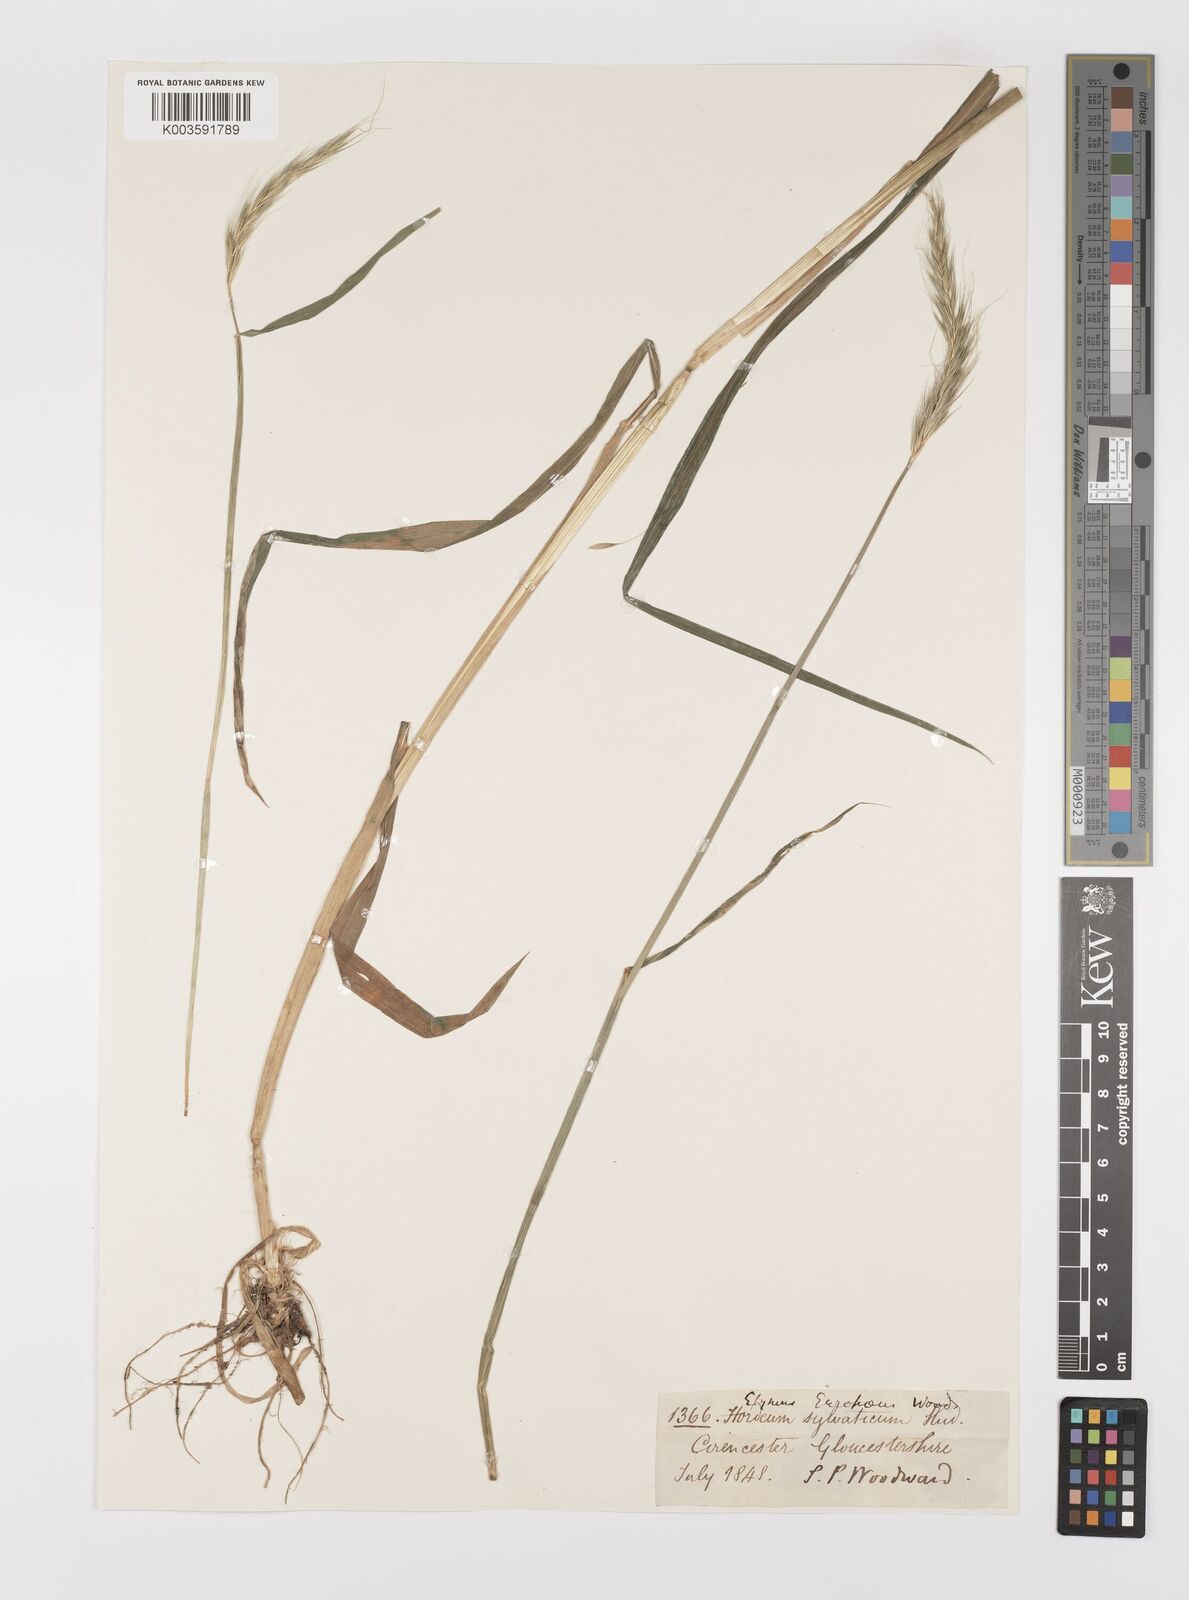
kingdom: Plantae
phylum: Tracheophyta
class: Liliopsida
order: Poales
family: Poaceae
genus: Hordelymus
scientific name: Hordelymus europaeus
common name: Wood-barley
